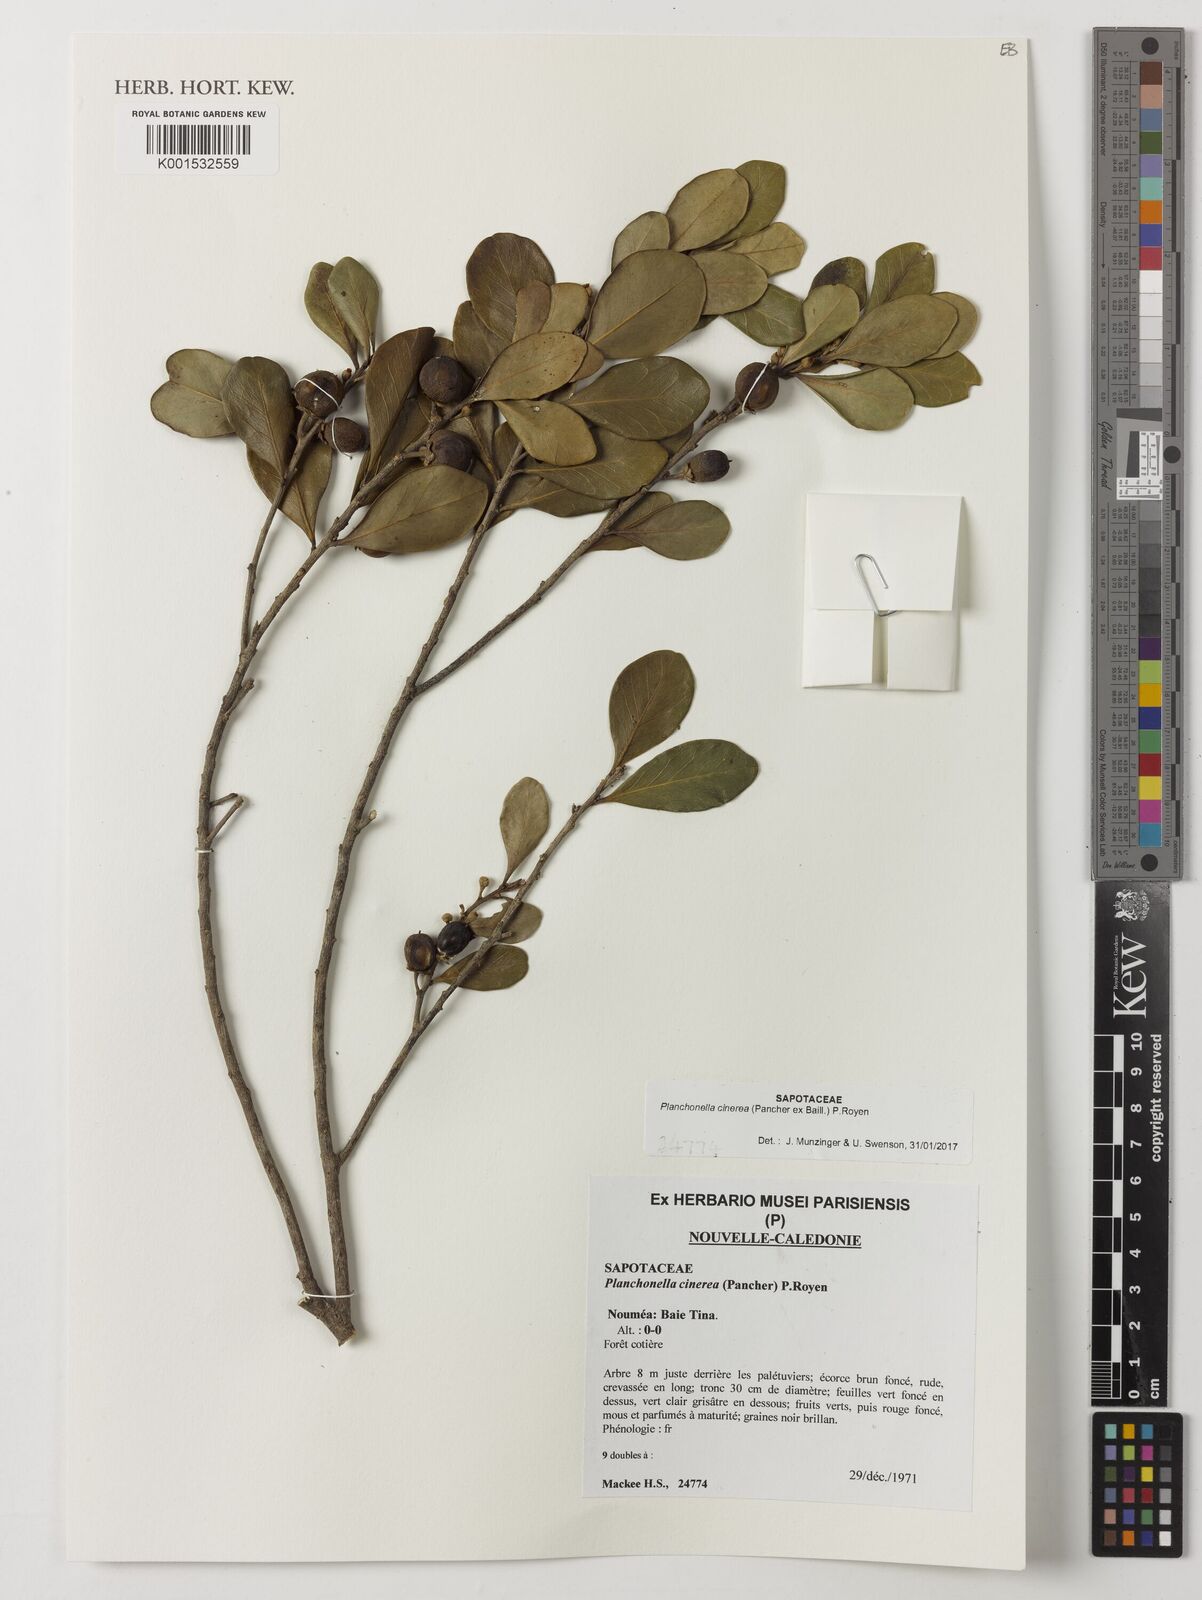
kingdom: Plantae
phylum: Tracheophyta
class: Magnoliopsida
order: Ericales
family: Sapotaceae
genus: Planchonella
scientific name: Planchonella cinerea
